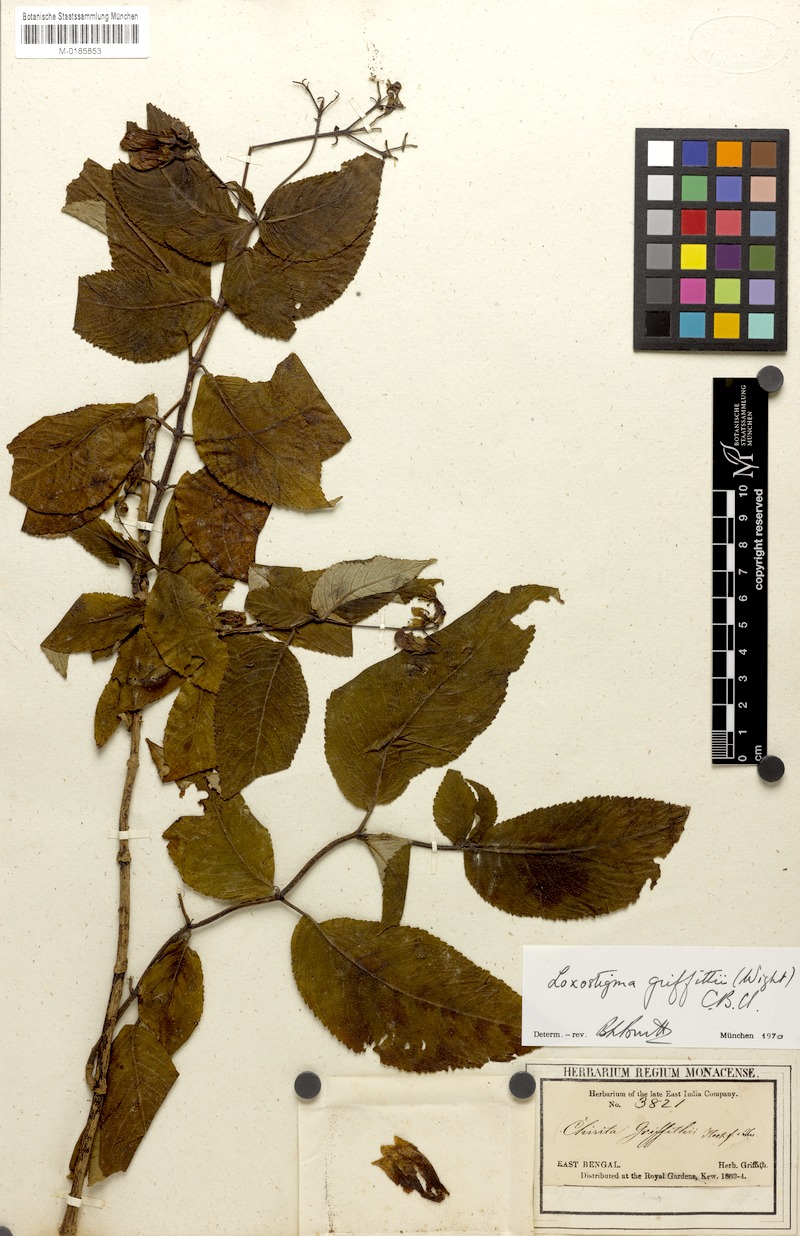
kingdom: Plantae
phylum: Tracheophyta
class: Magnoliopsida
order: Lamiales
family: Gesneriaceae
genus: Loxostigma
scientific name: Loxostigma griffithii
